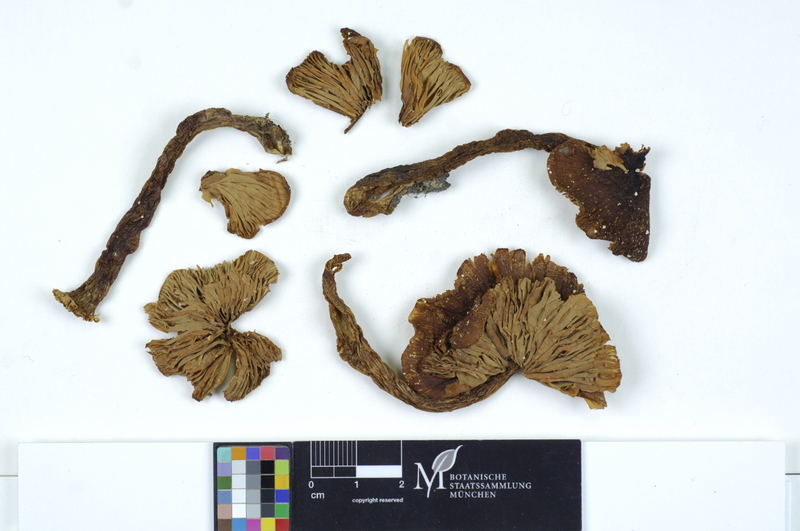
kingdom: Fungi
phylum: Basidiomycota
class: Agaricomycetes
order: Agaricales
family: Entolomataceae
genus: Entoloma
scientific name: Entoloma rhodopolium
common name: Wood pinkgill
